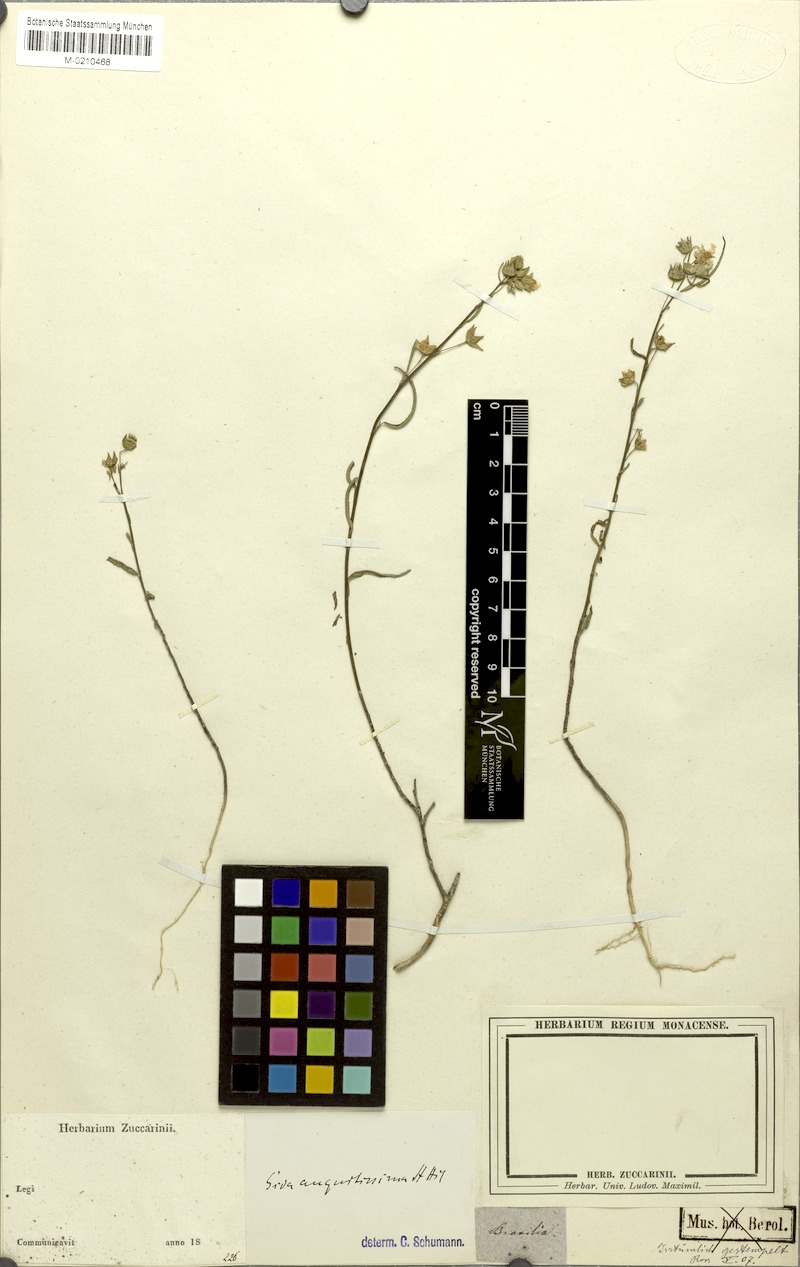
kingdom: Plantae
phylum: Tracheophyta
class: Magnoliopsida
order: Malvales
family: Malvaceae
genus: Sida
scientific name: Sida angustissima
